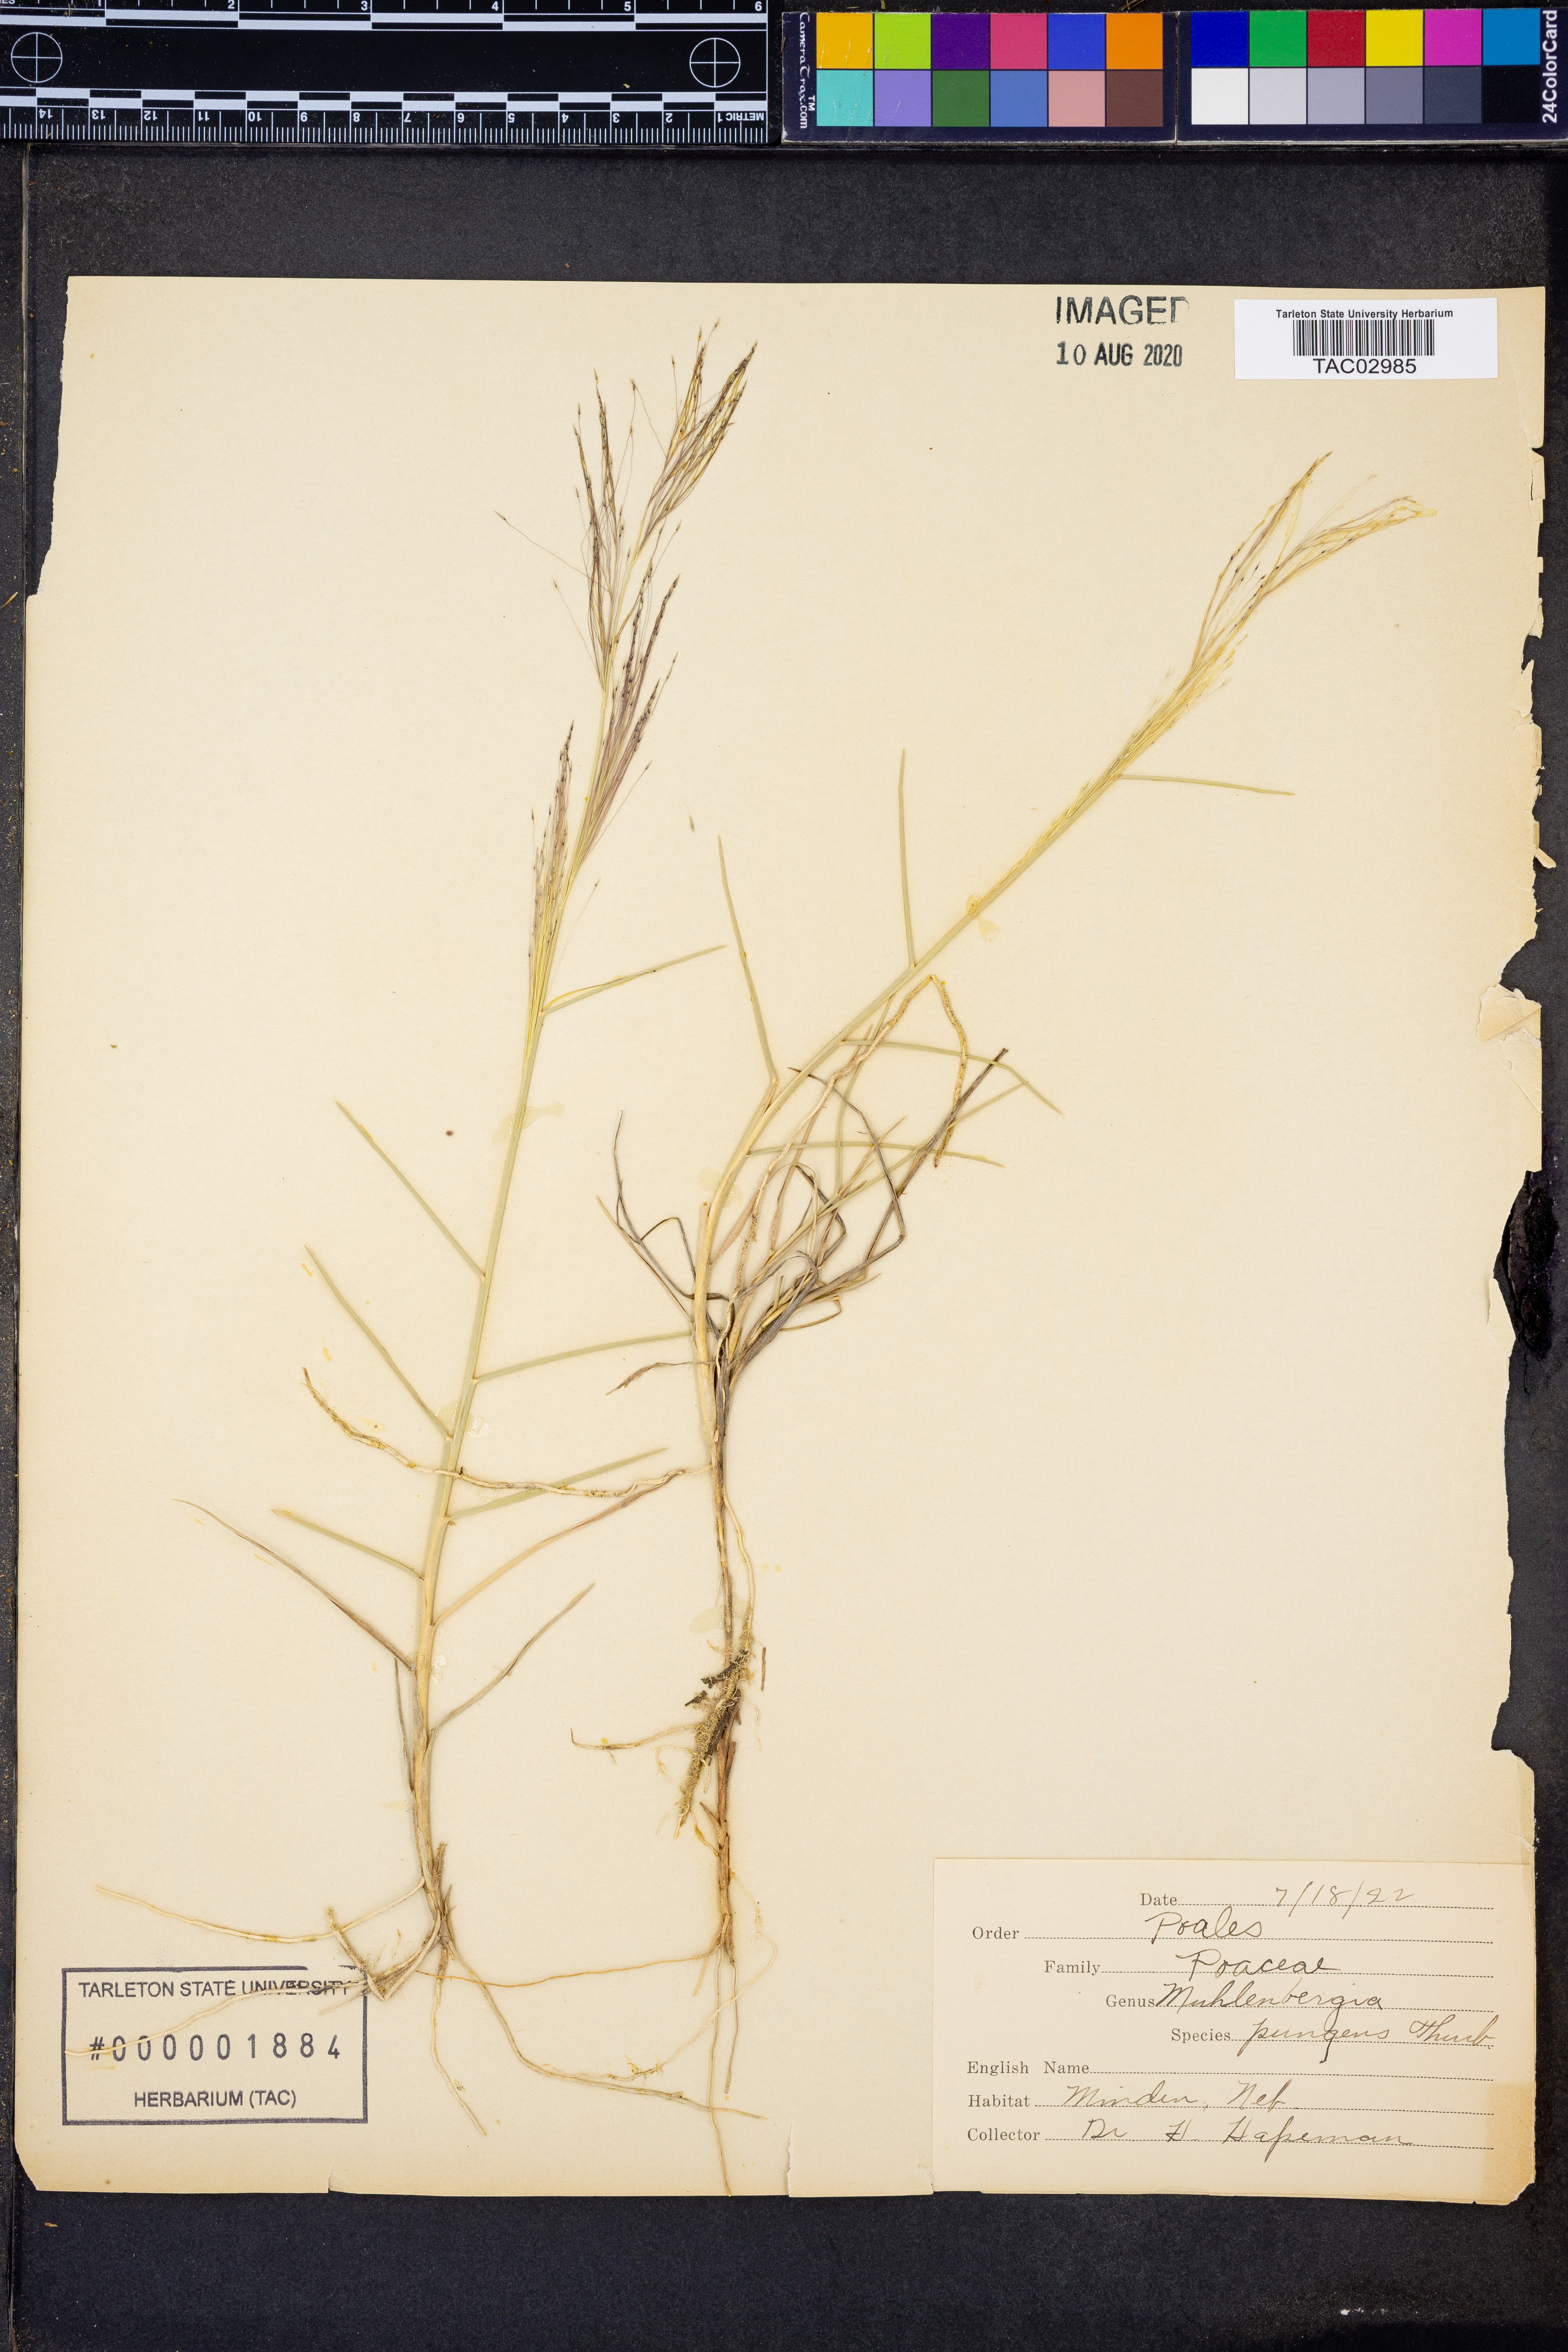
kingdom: Plantae
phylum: Tracheophyta
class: Liliopsida
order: Poales
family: Poaceae
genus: Muhlenbergia
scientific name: Muhlenbergia pungens
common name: Sandhill muhly
